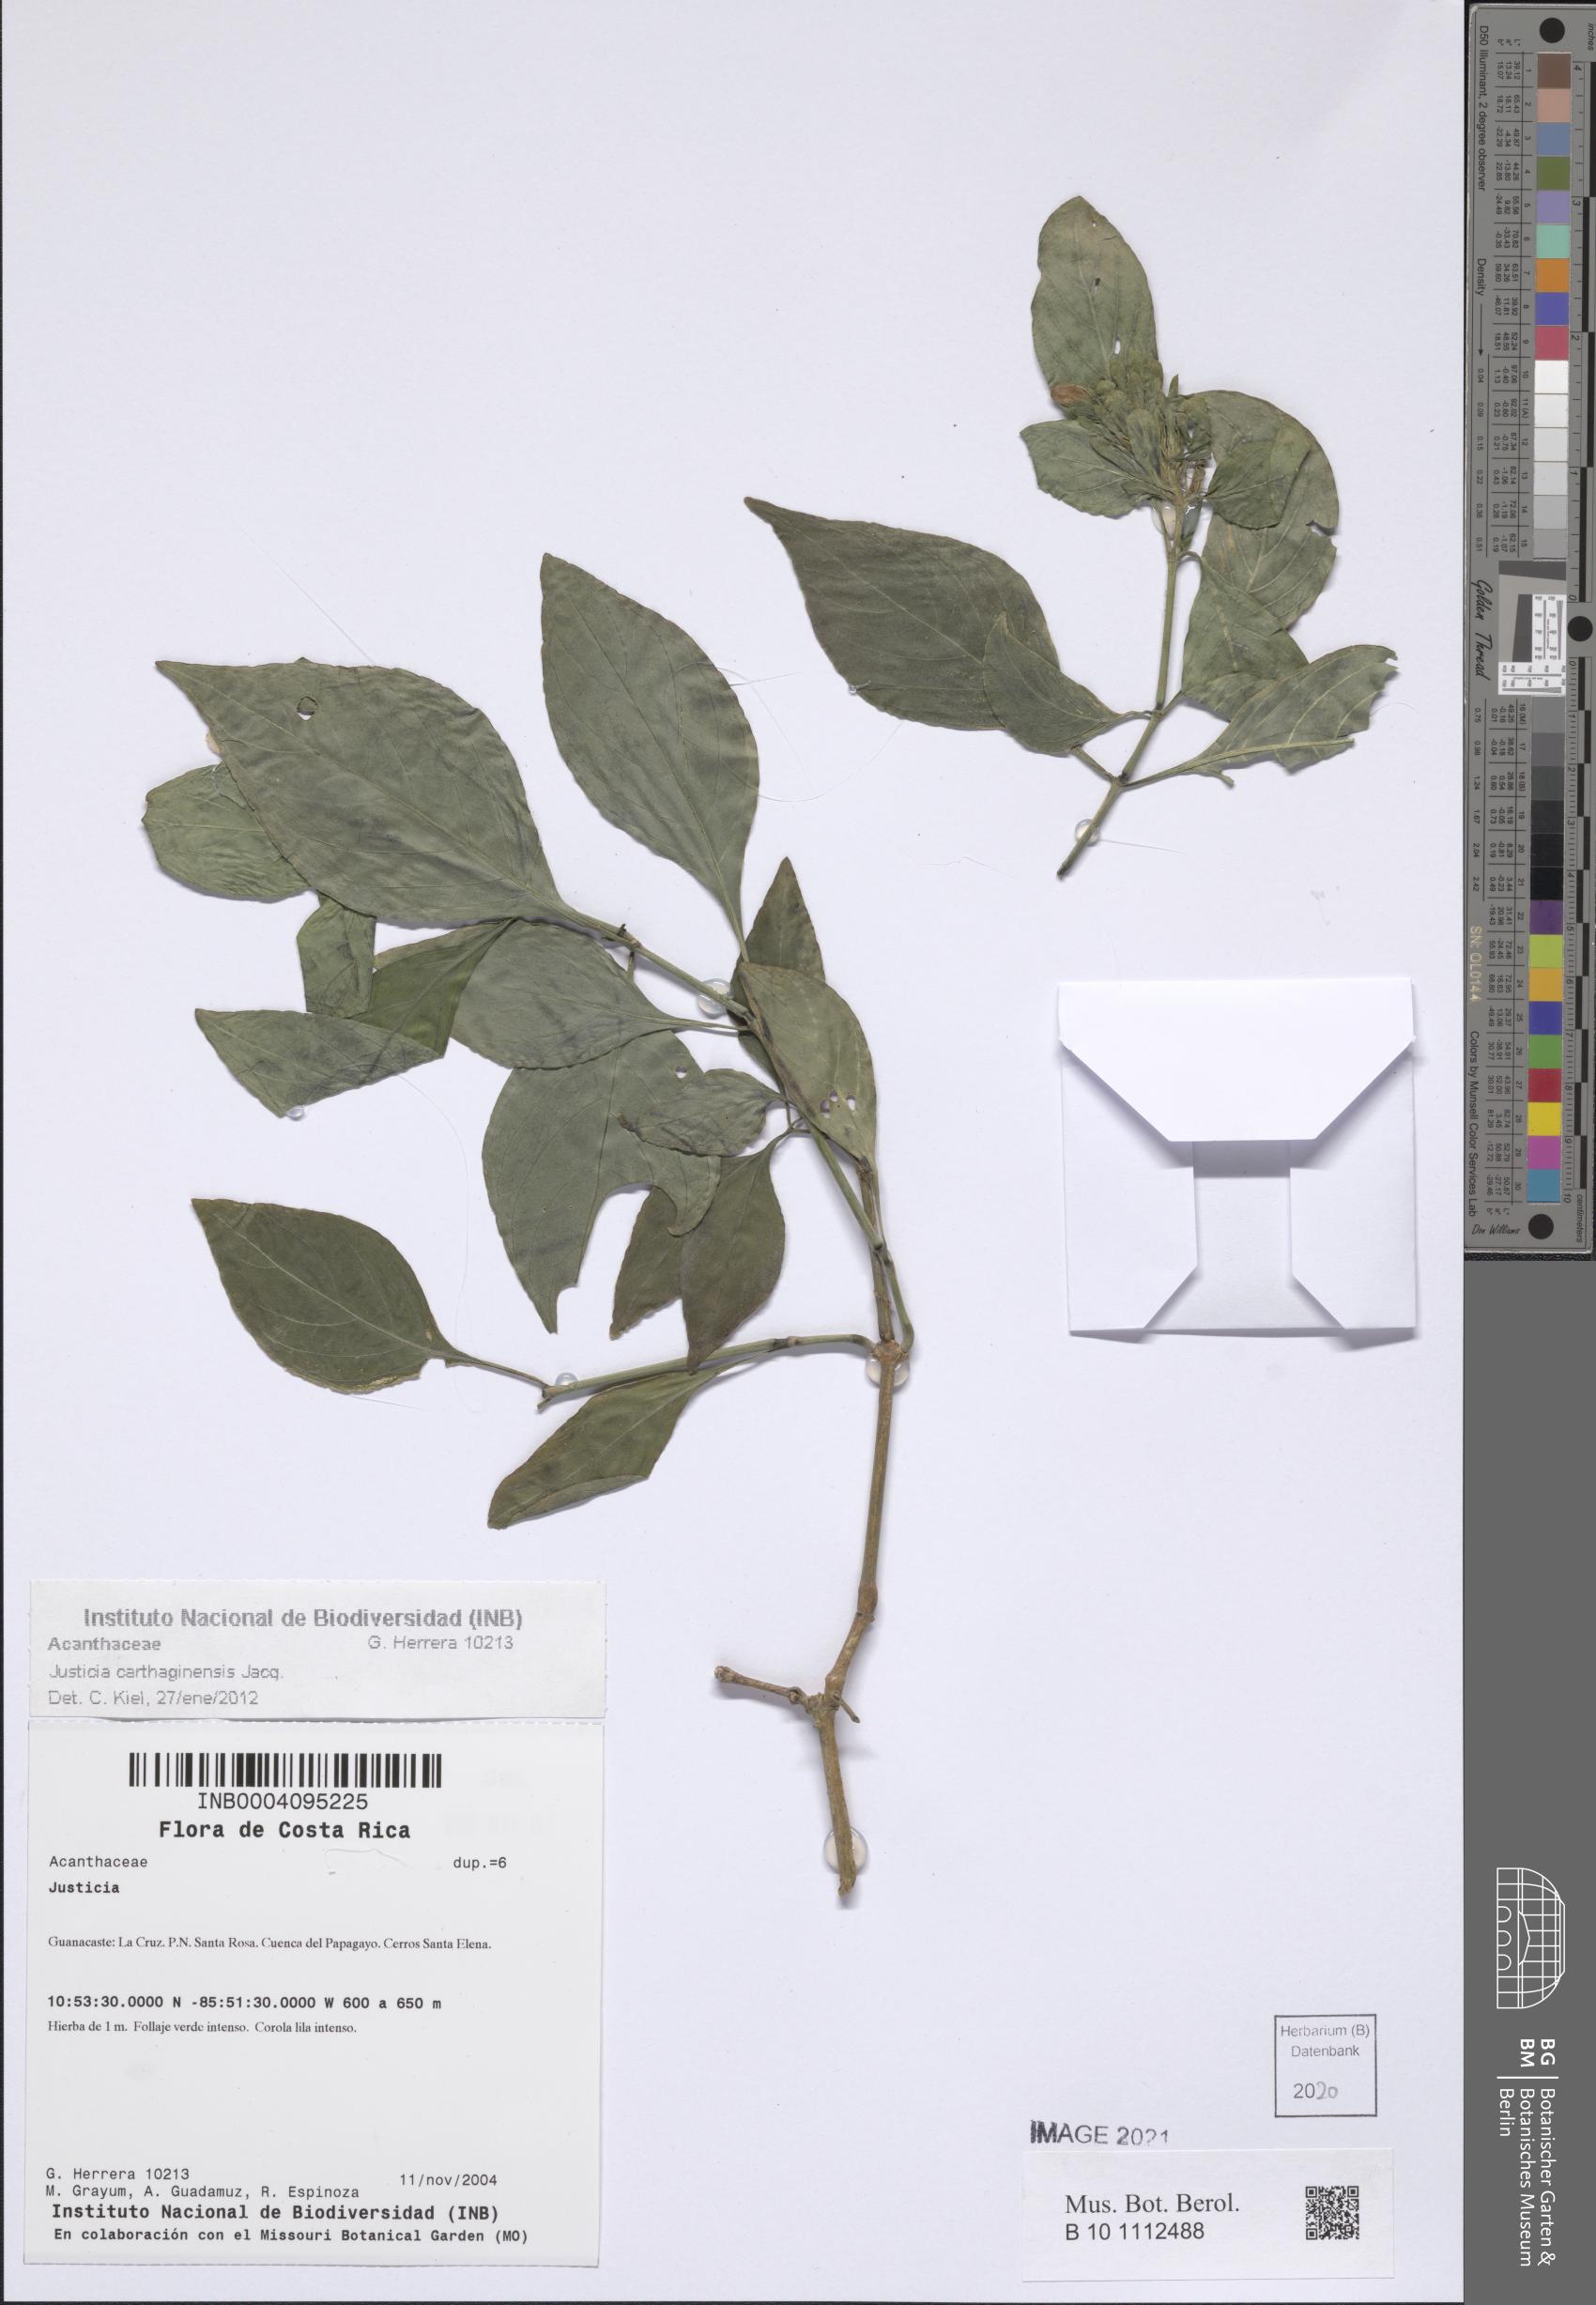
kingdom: Plantae
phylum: Tracheophyta
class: Magnoliopsida
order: Lamiales
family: Acanthaceae
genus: Justicia
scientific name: Justicia carthaginensis
